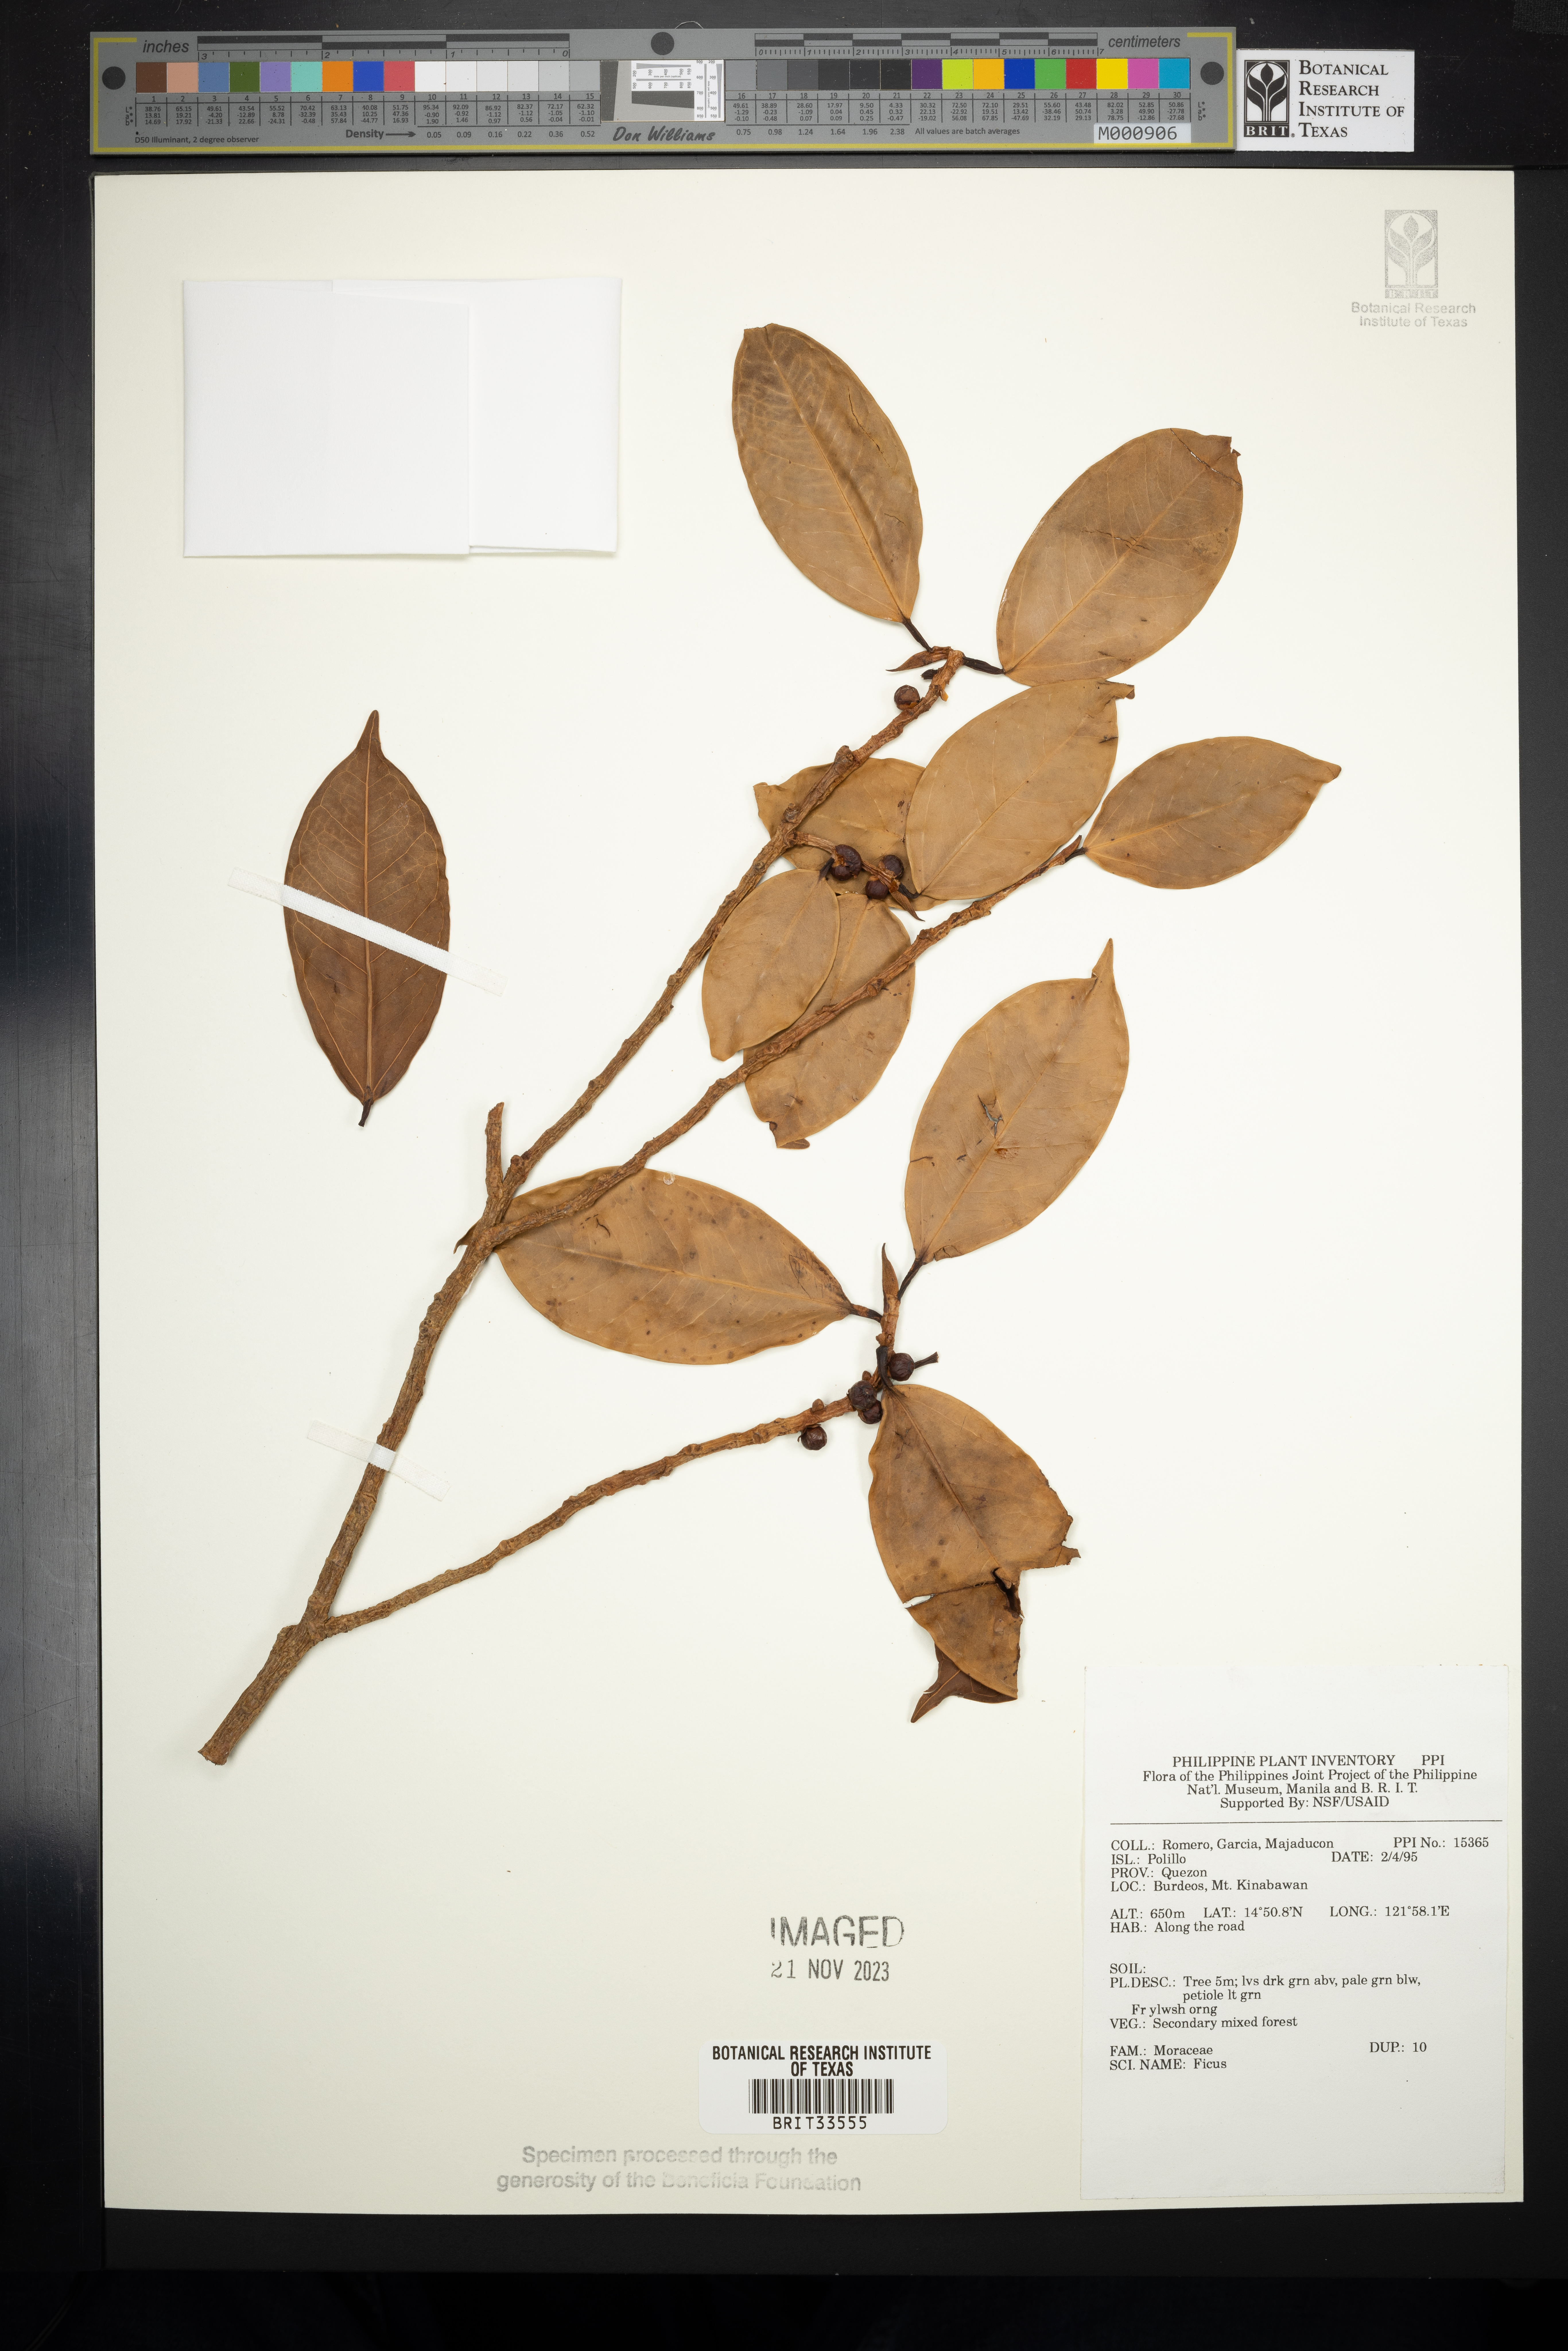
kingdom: Plantae
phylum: Tracheophyta
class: Magnoliopsida
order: Rosales
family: Moraceae
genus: Ficus
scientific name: Ficus
